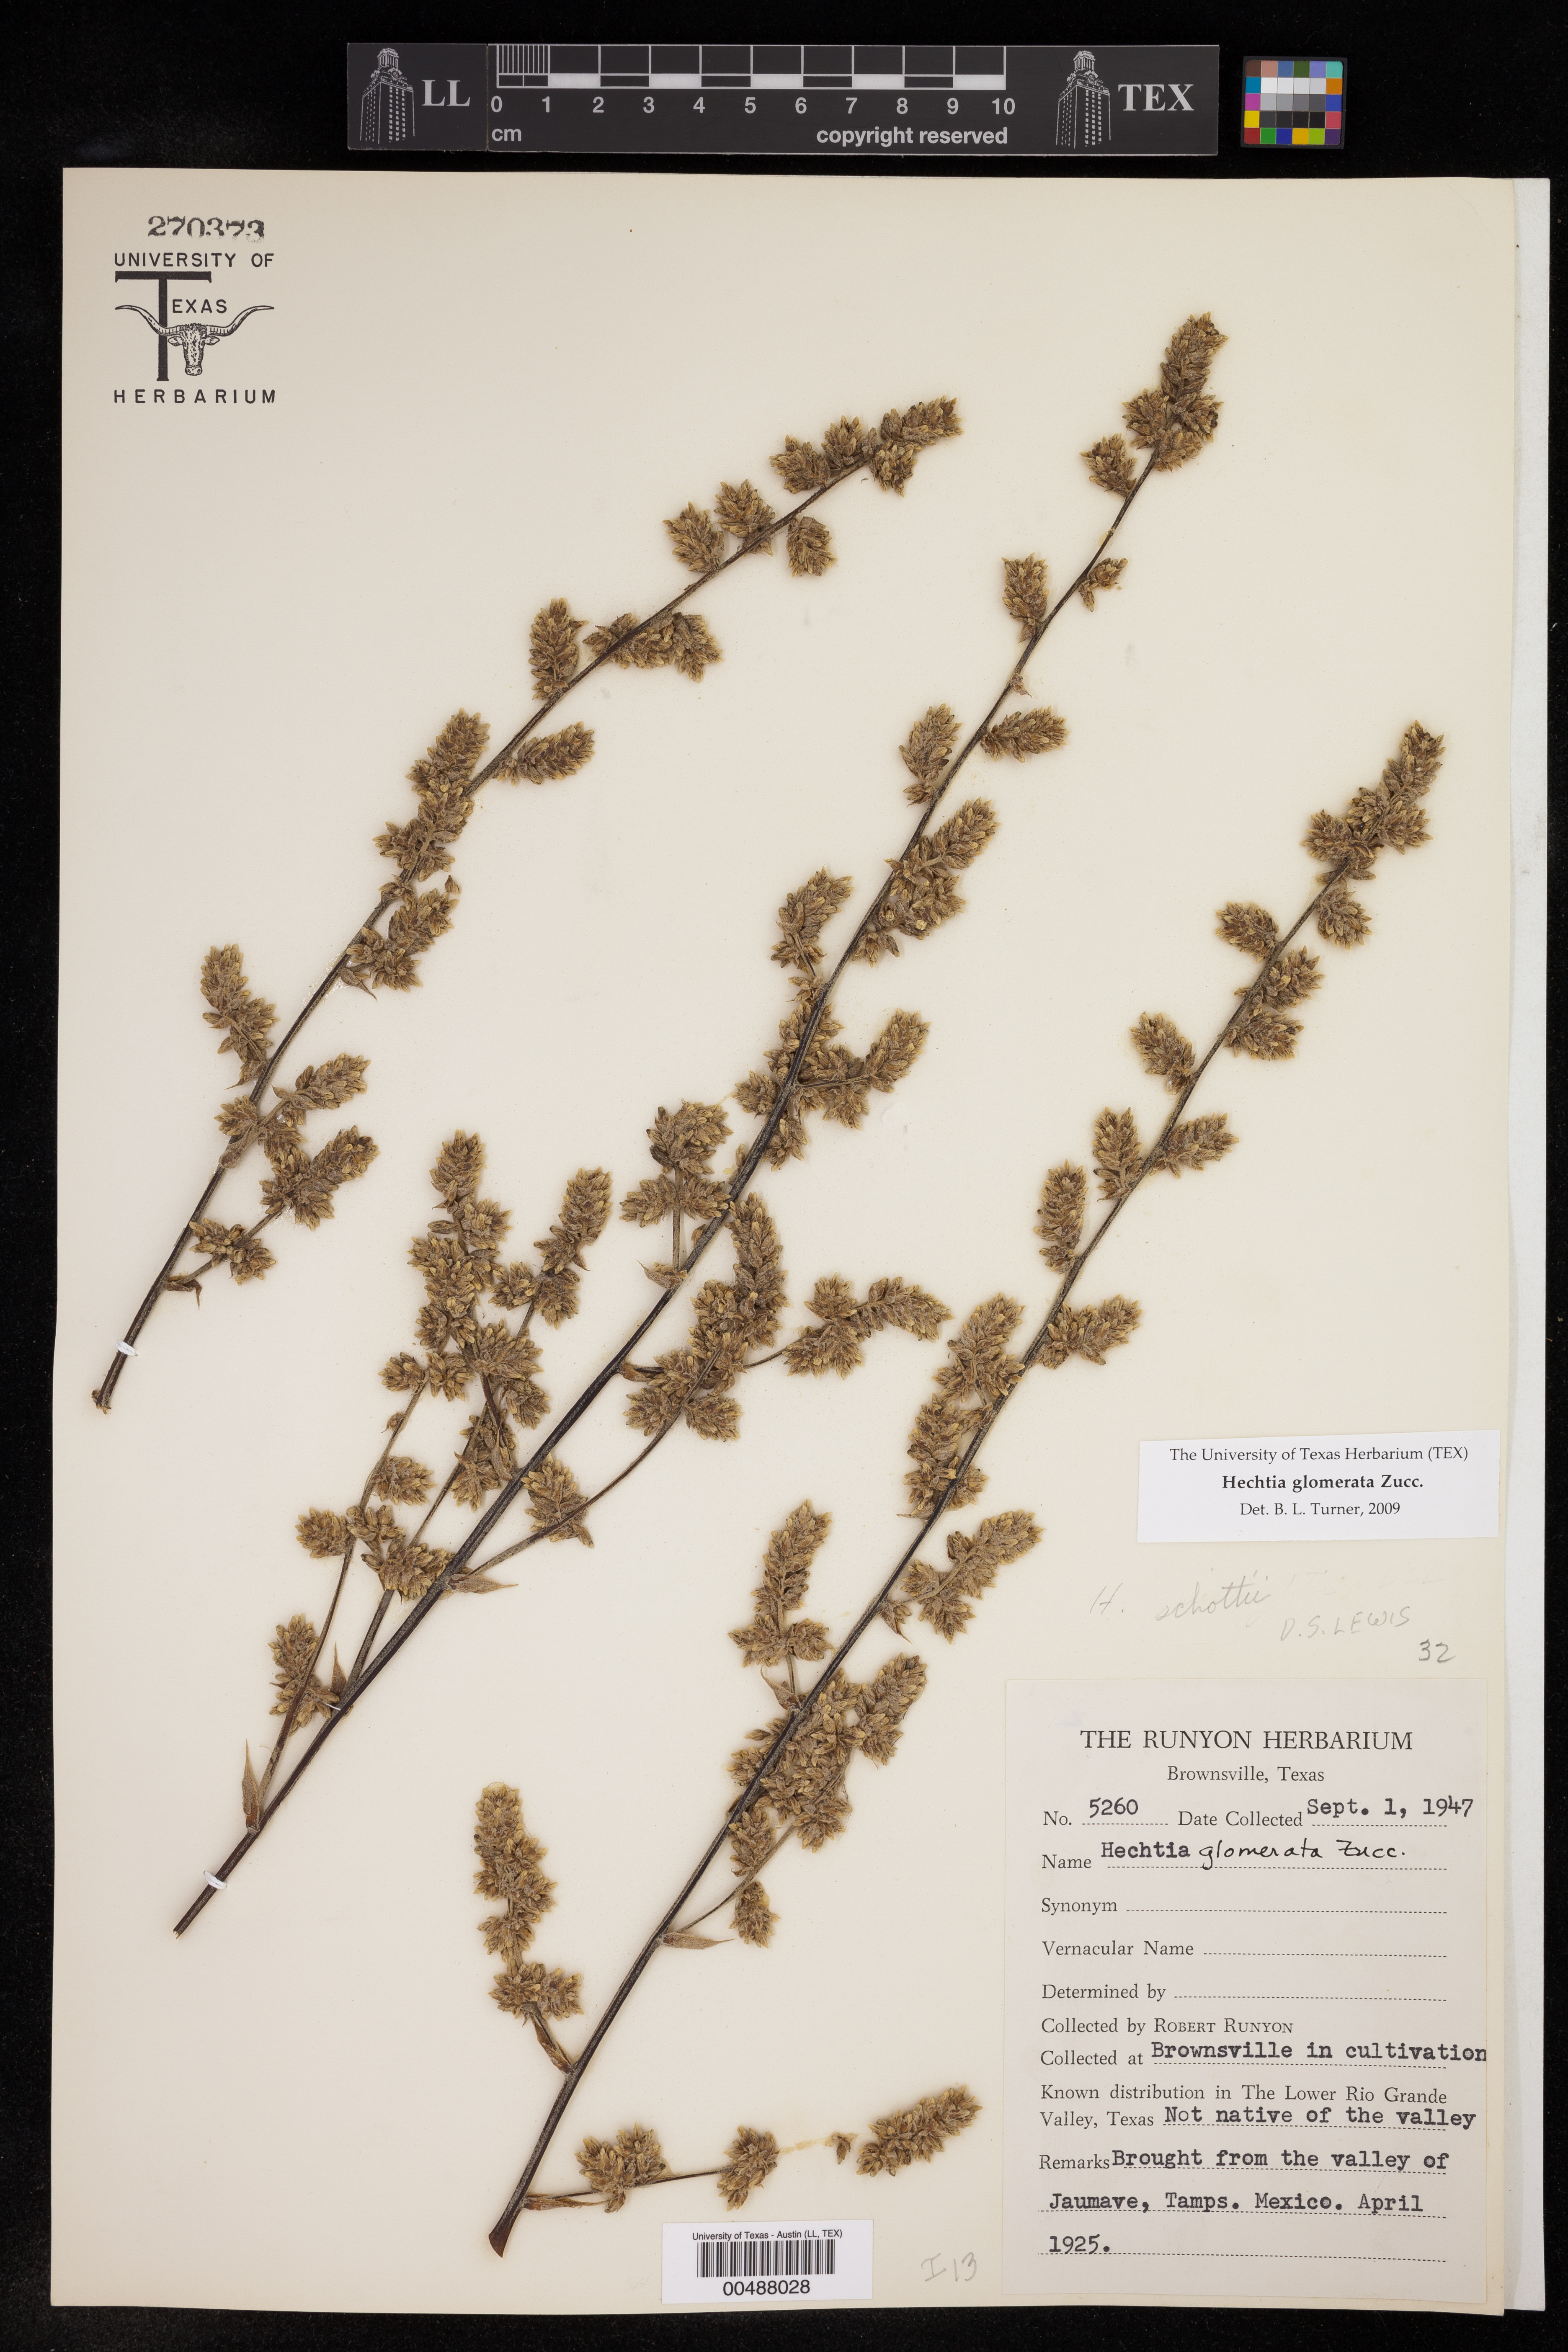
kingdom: Plantae
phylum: Tracheophyta
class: Liliopsida
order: Poales
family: Bromeliaceae
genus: Hechtia
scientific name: Hechtia glomerata
